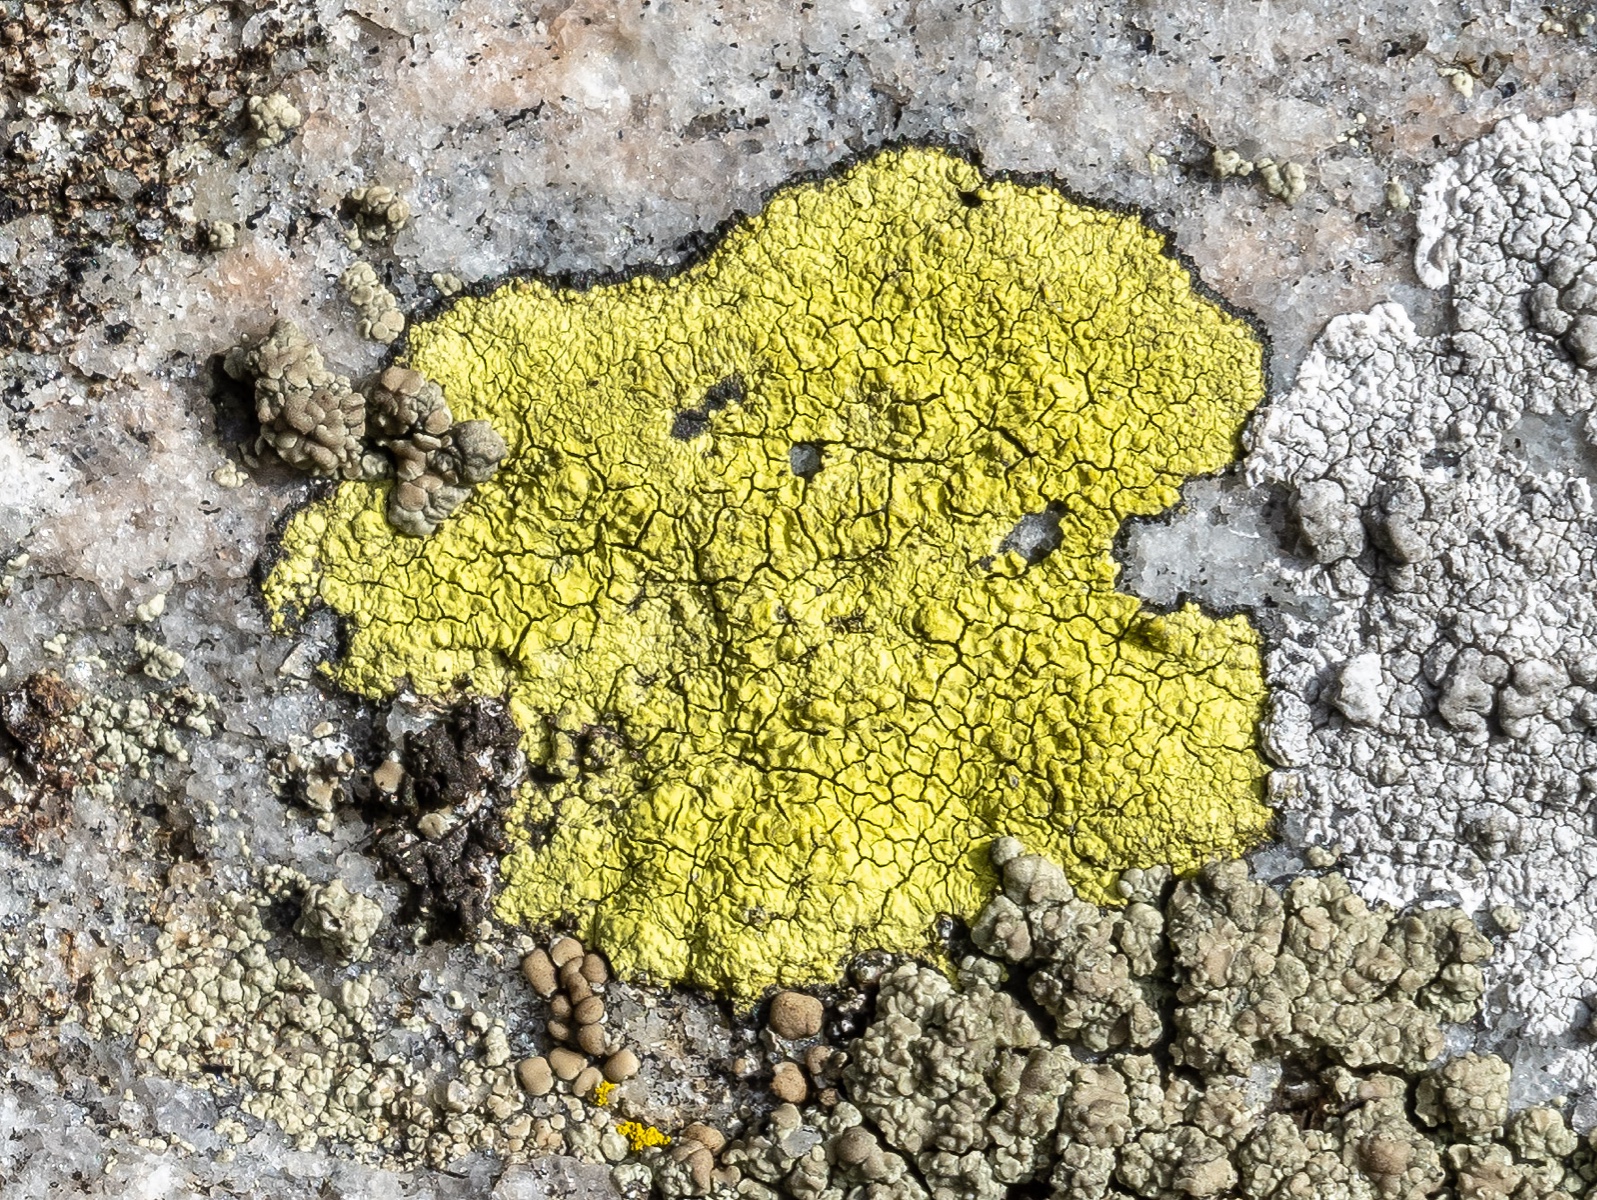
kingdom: Fungi
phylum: Ascomycota
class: Lecanoromycetes
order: Rhizocarpales
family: Rhizocarpaceae
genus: Rhizocarpon
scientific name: Rhizocarpon geographicum
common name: gulgrøn landkortlav
